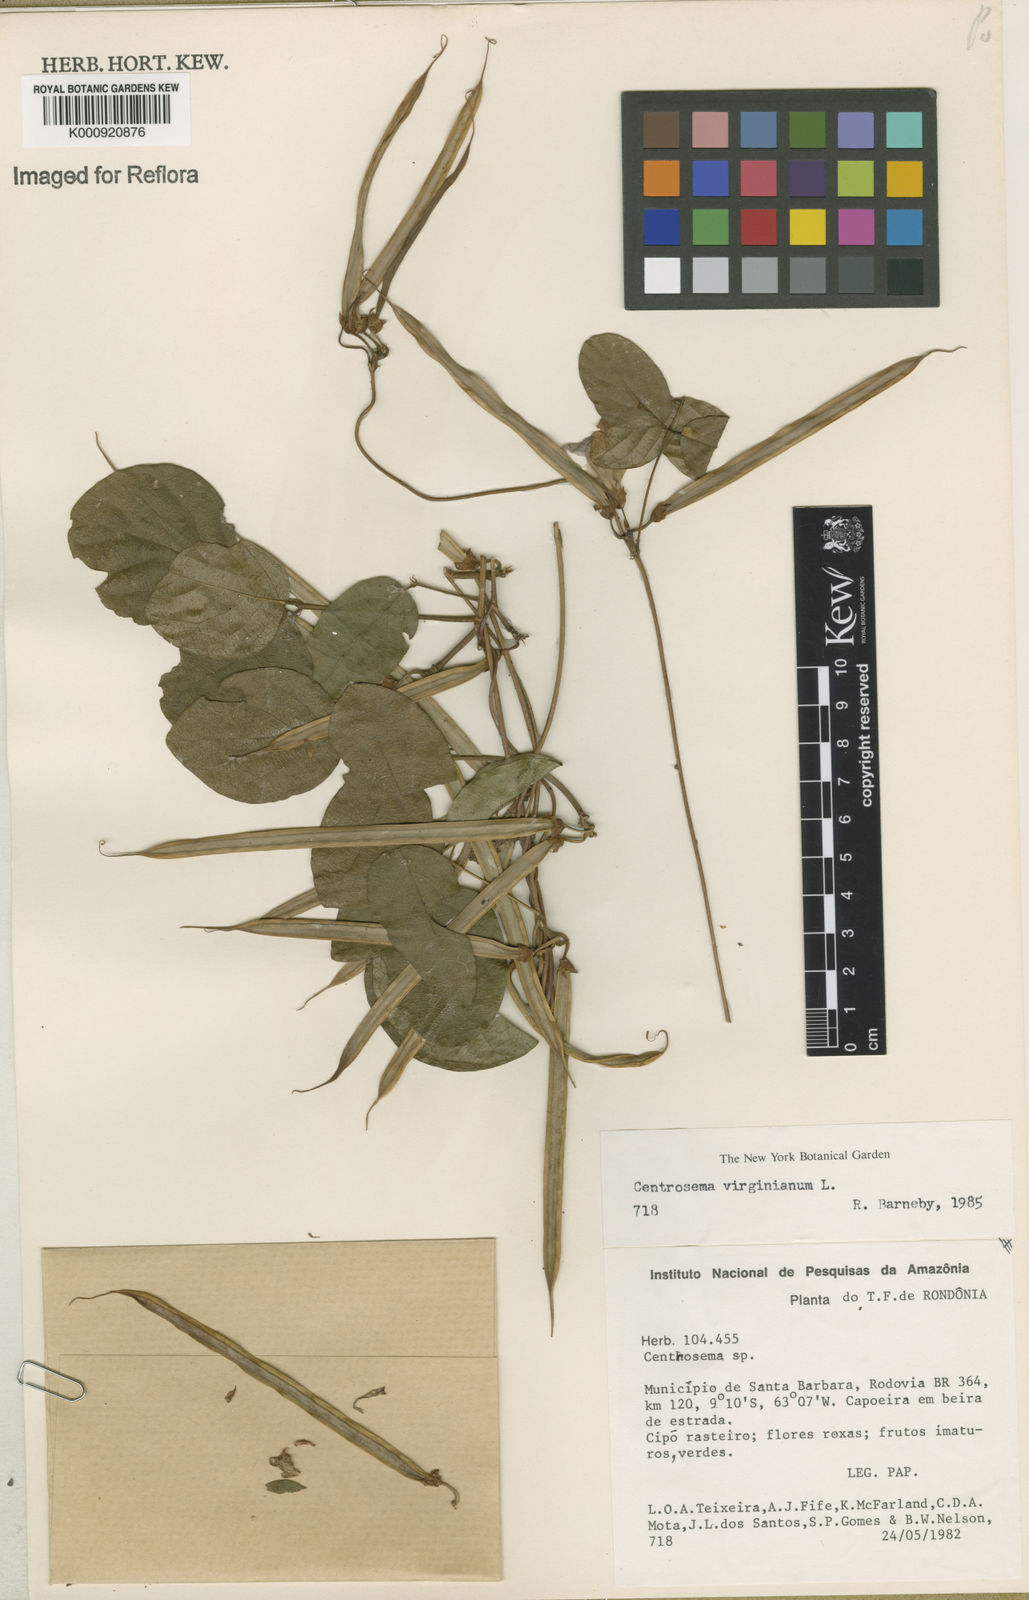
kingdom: Plantae
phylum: Tracheophyta
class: Magnoliopsida
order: Fabales
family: Fabaceae
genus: Centrosema
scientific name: Centrosema virginianum
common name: Butterfly-pea
